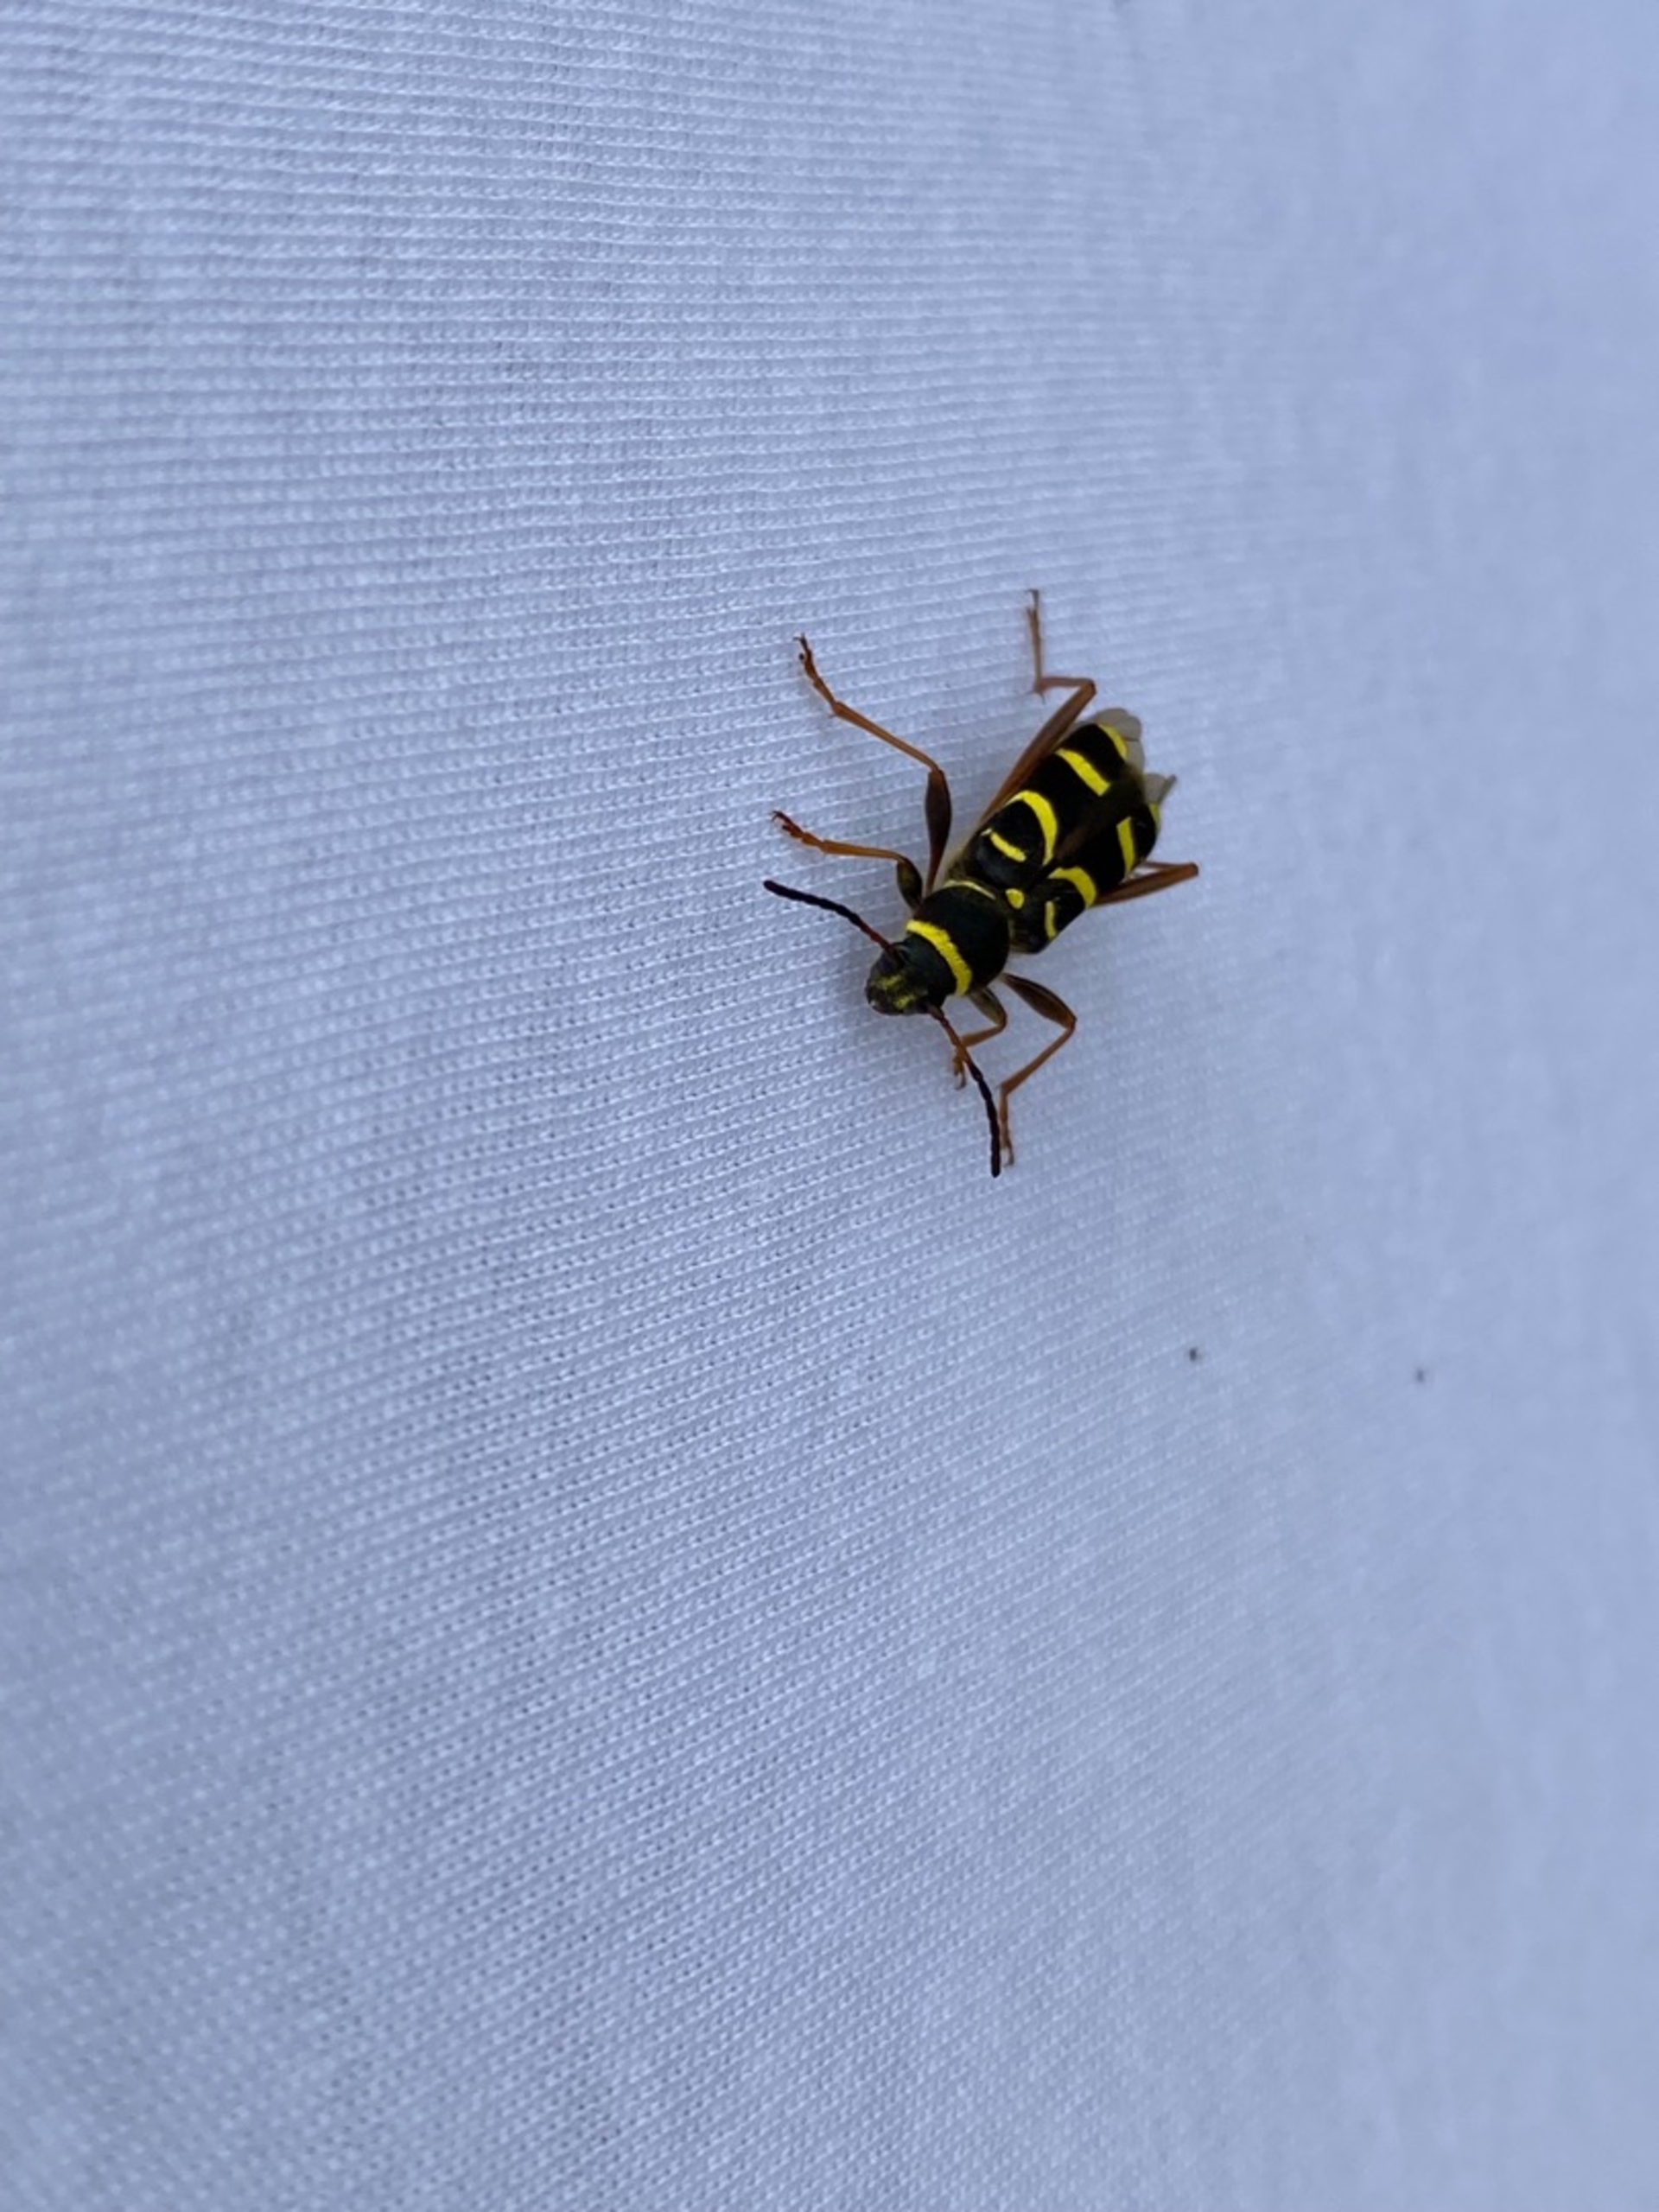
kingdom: Animalia
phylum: Arthropoda
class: Insecta
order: Coleoptera
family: Cerambycidae
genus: Clytus
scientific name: Clytus arietis
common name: Lille hvepsebuk
